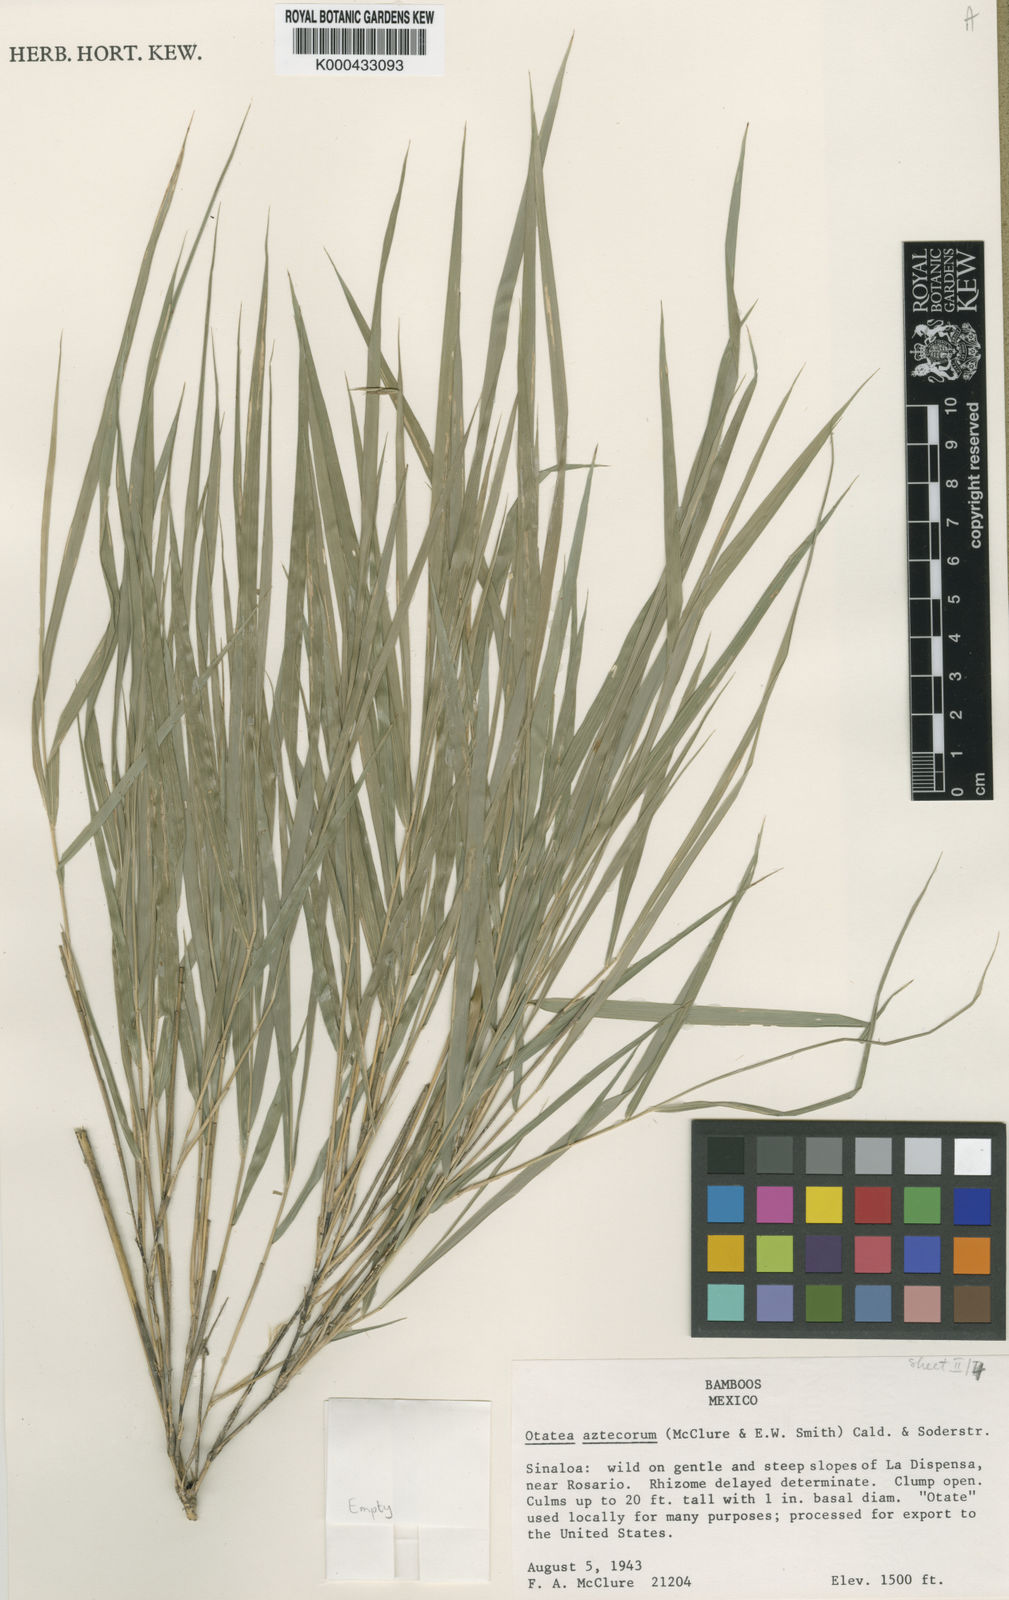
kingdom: Plantae
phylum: Tracheophyta
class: Liliopsida
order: Poales
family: Poaceae
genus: Otatea
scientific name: Otatea acuminata
